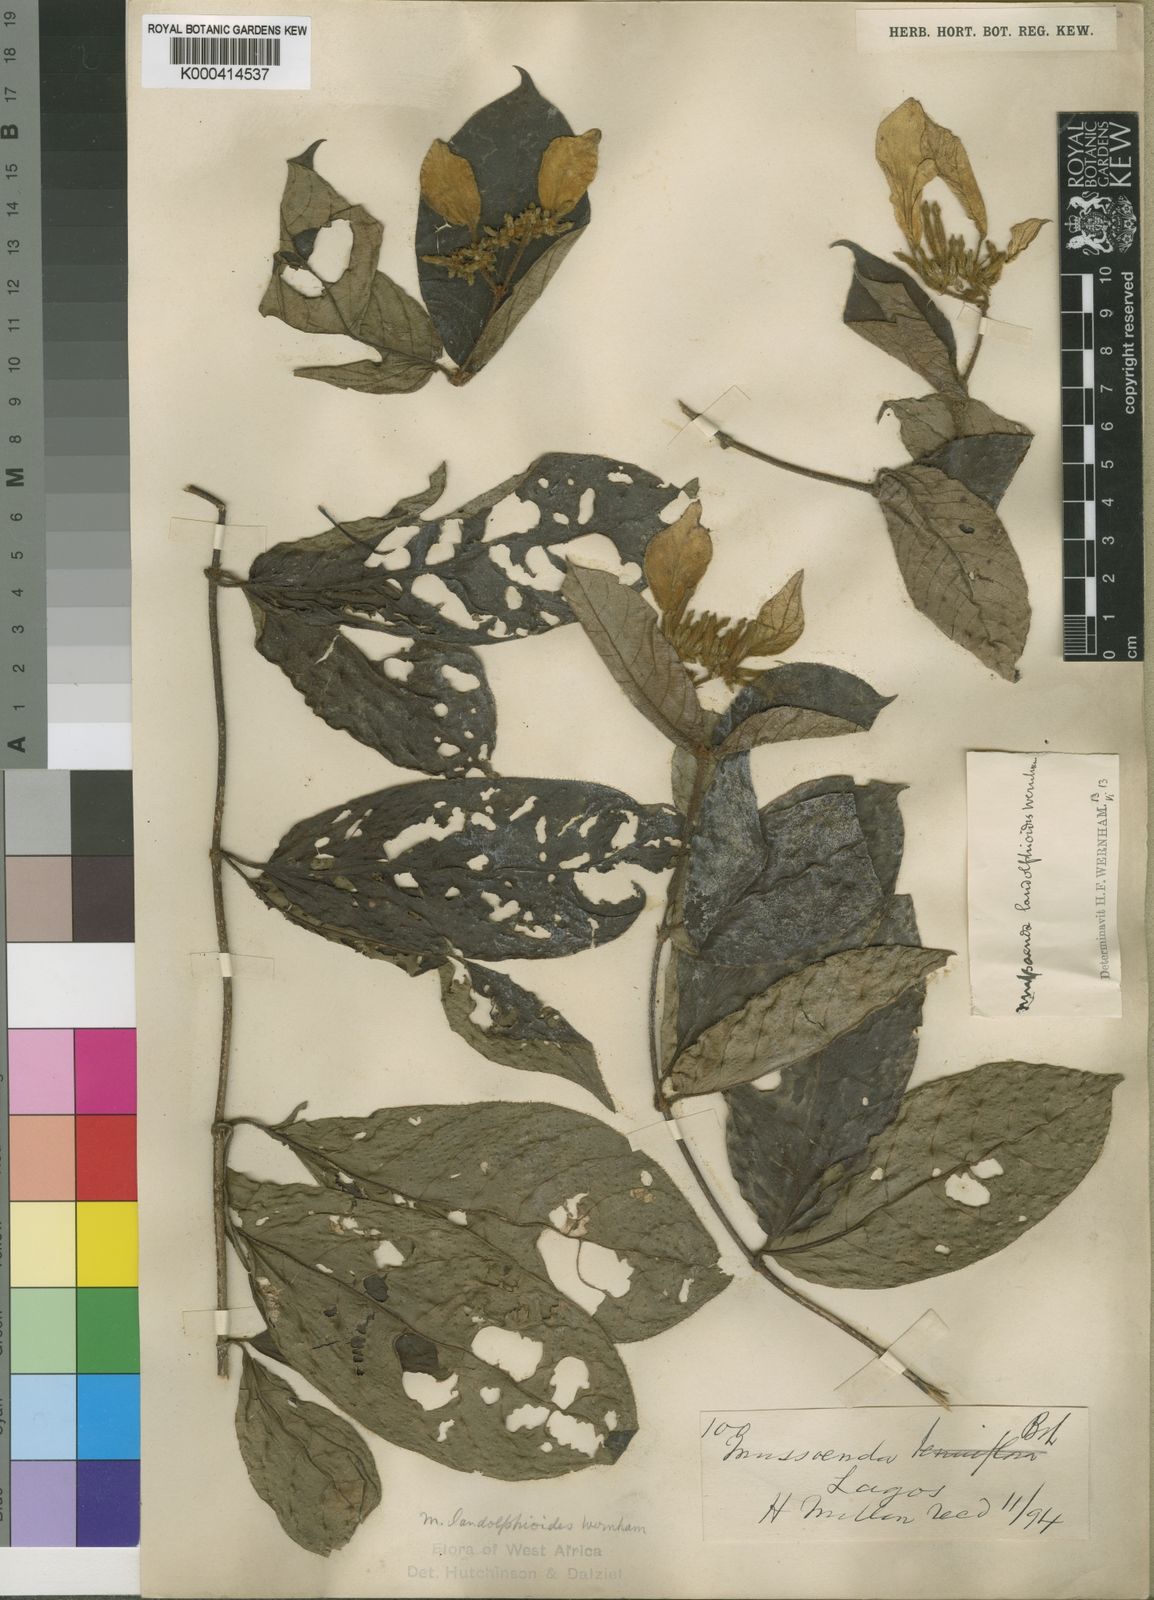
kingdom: Plantae
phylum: Tracheophyta
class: Magnoliopsida
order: Gentianales
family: Rubiaceae
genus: Mussaenda
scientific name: Mussaenda landolphioides
